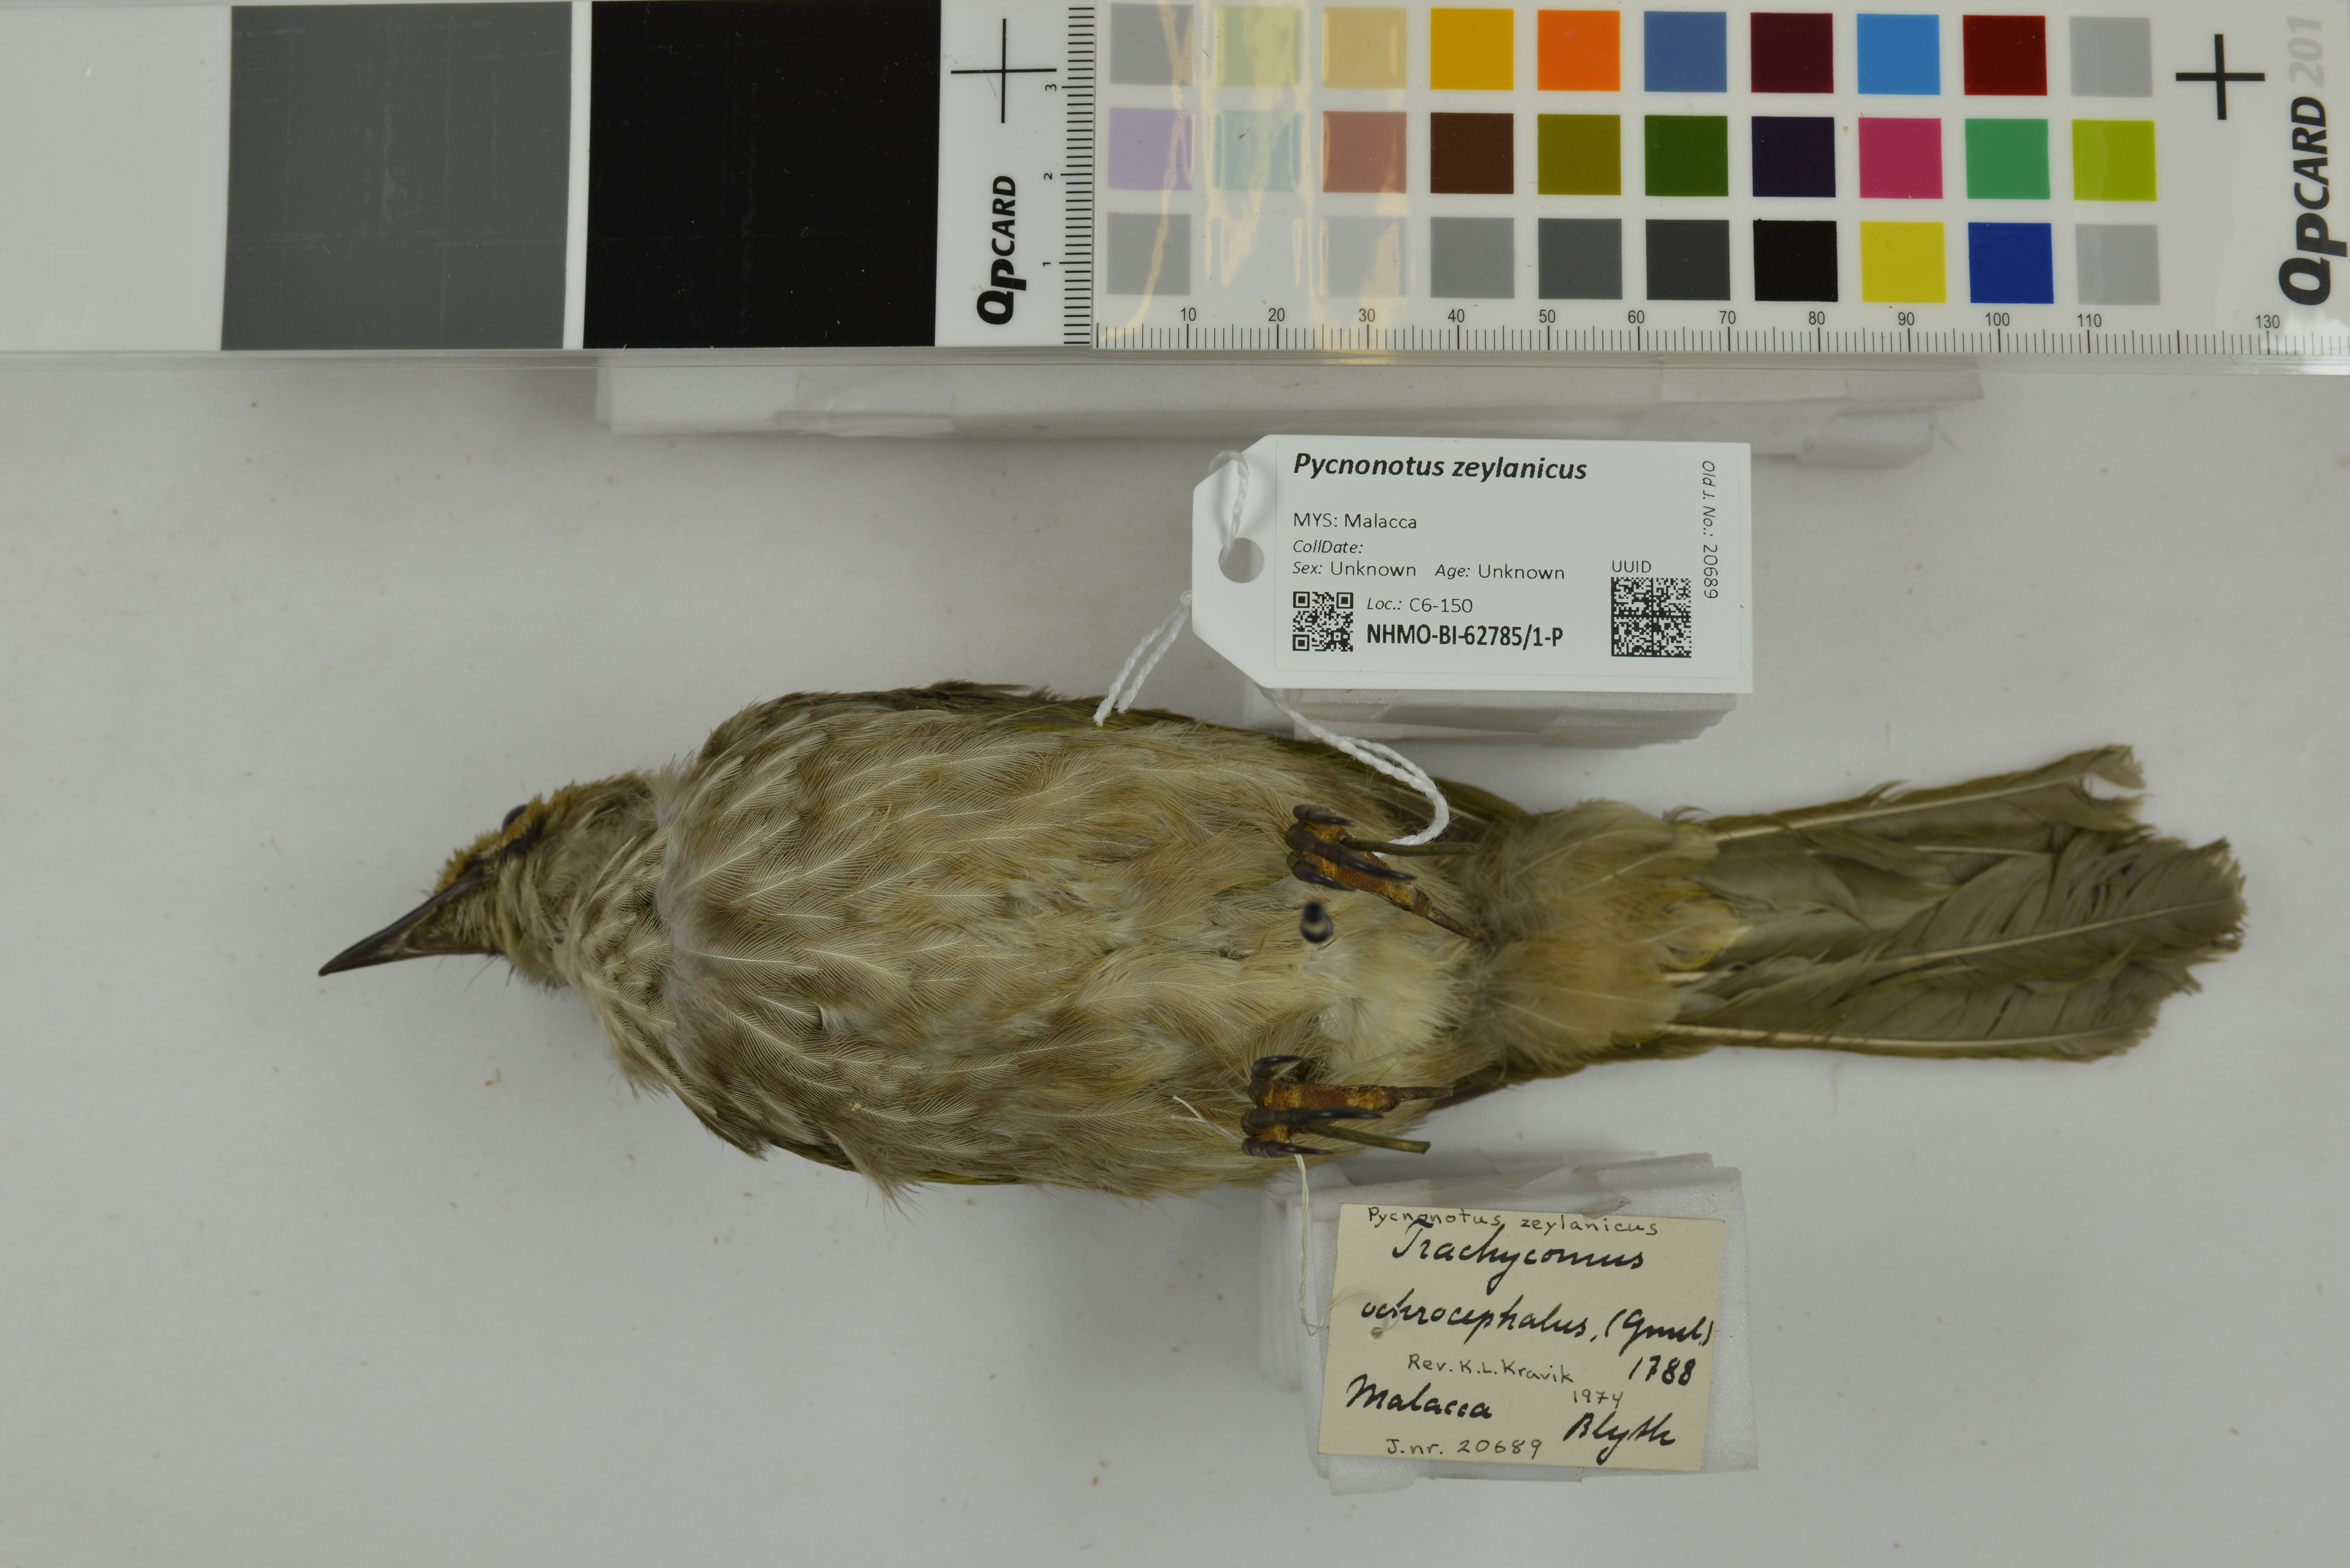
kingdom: Animalia
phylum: Chordata
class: Aves
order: Passeriformes
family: Pycnonotidae
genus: Pycnonotus
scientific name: Pycnonotus zeylanicus
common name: Straw-headed bulbul
